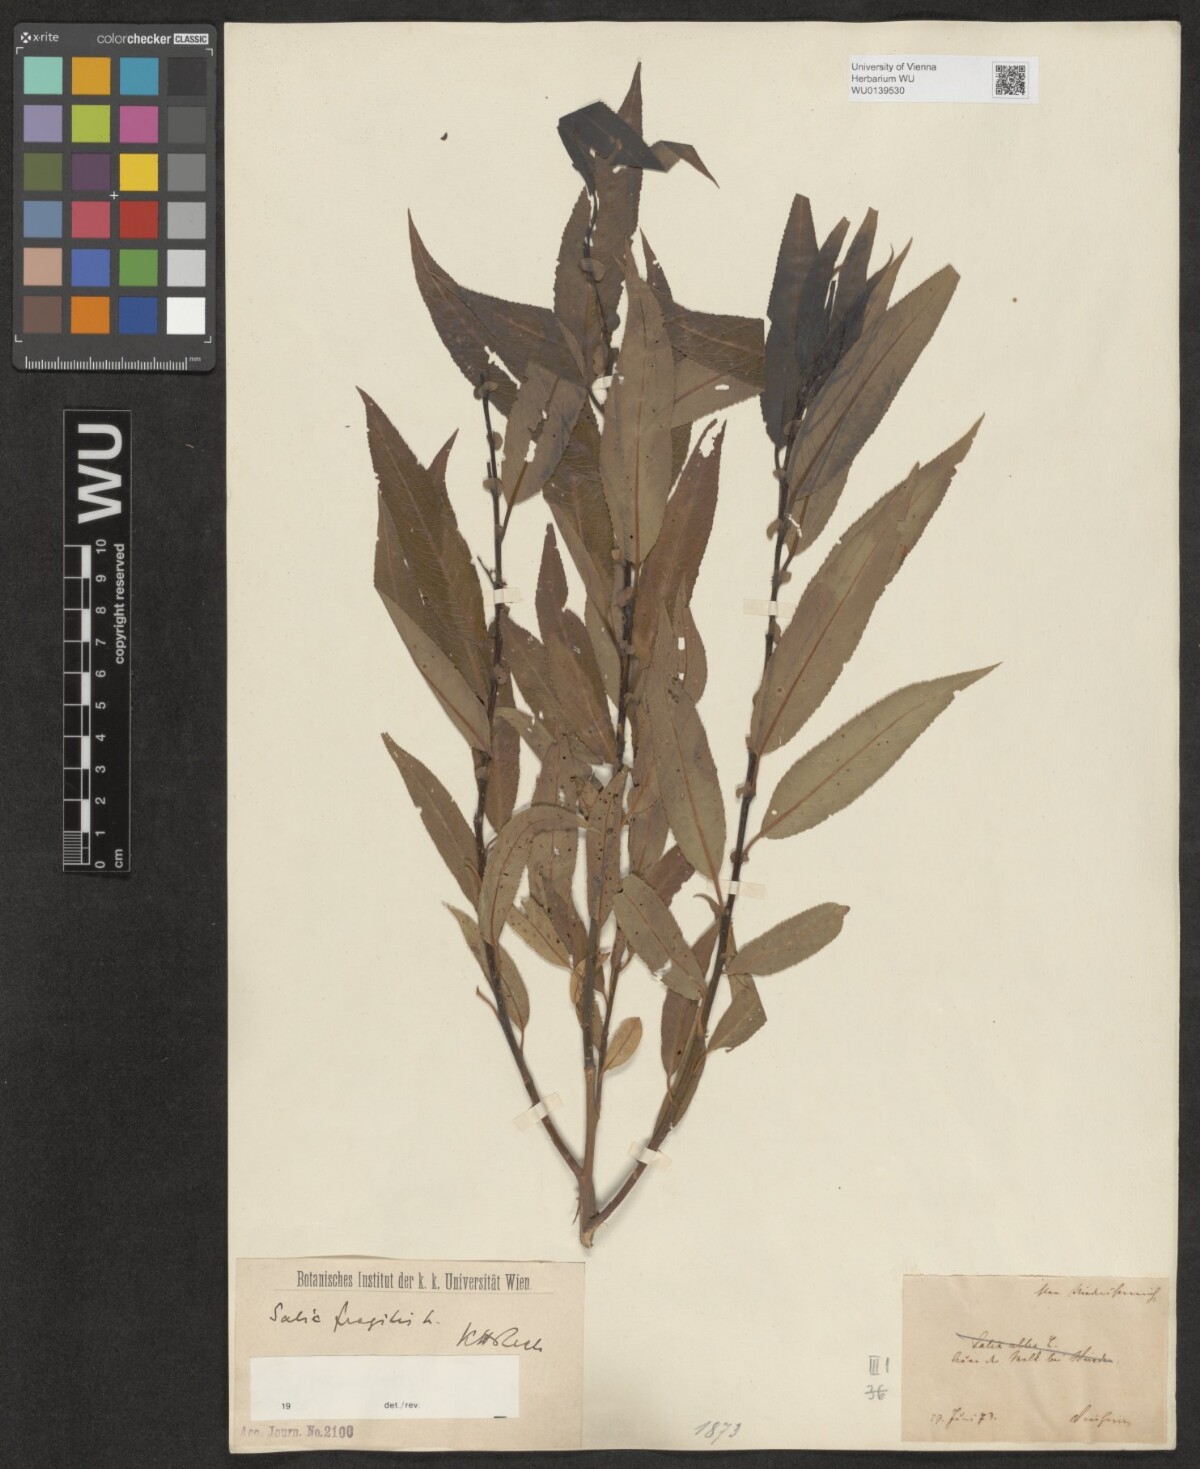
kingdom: Plantae
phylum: Tracheophyta
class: Magnoliopsida
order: Malpighiales
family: Salicaceae
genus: Salix
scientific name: Salix rubens
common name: Hybrid crack willow
